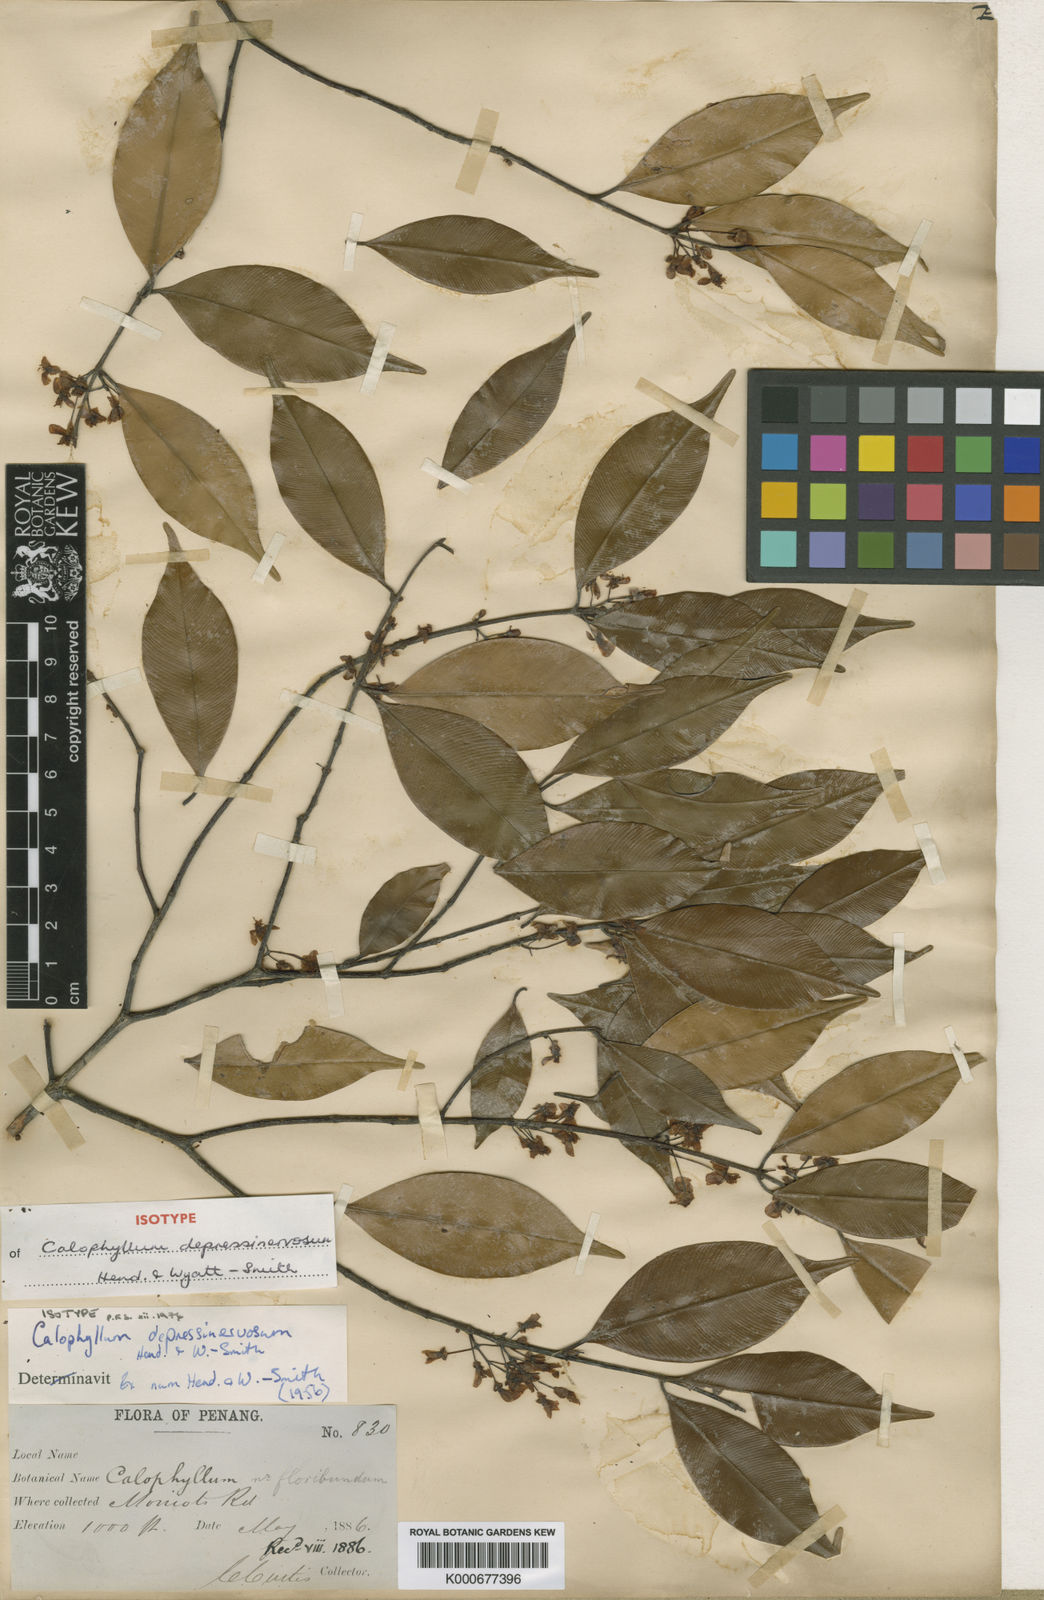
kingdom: Plantae
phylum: Tracheophyta
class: Magnoliopsida
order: Malpighiales
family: Calophyllaceae
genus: Calophyllum
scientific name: Calophyllum depressinervosum
